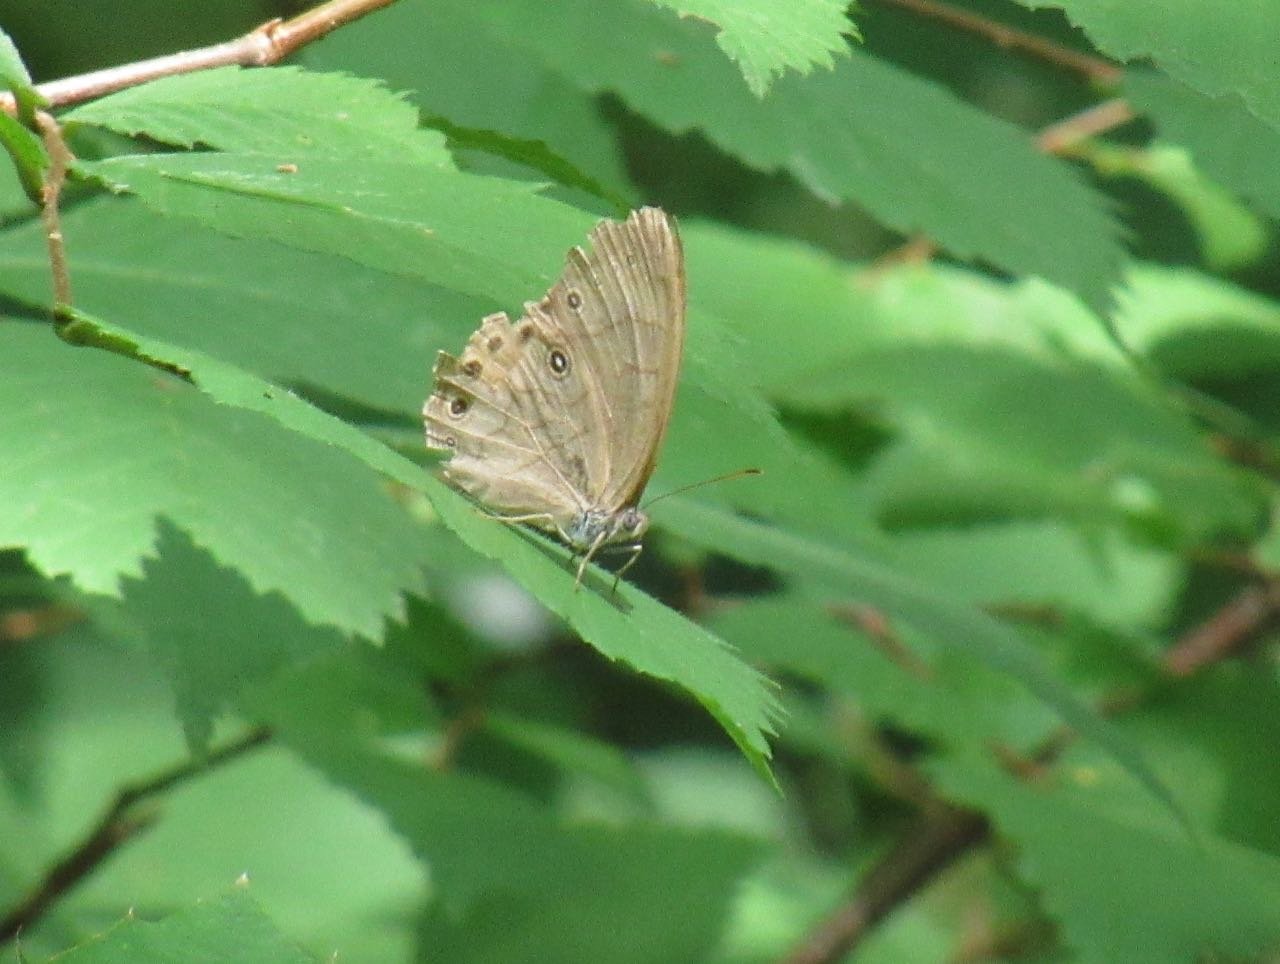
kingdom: Animalia
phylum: Arthropoda
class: Insecta
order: Lepidoptera
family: Nymphalidae
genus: Lethe
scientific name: Lethe eurydice
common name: Appalachian Eyed Brown
